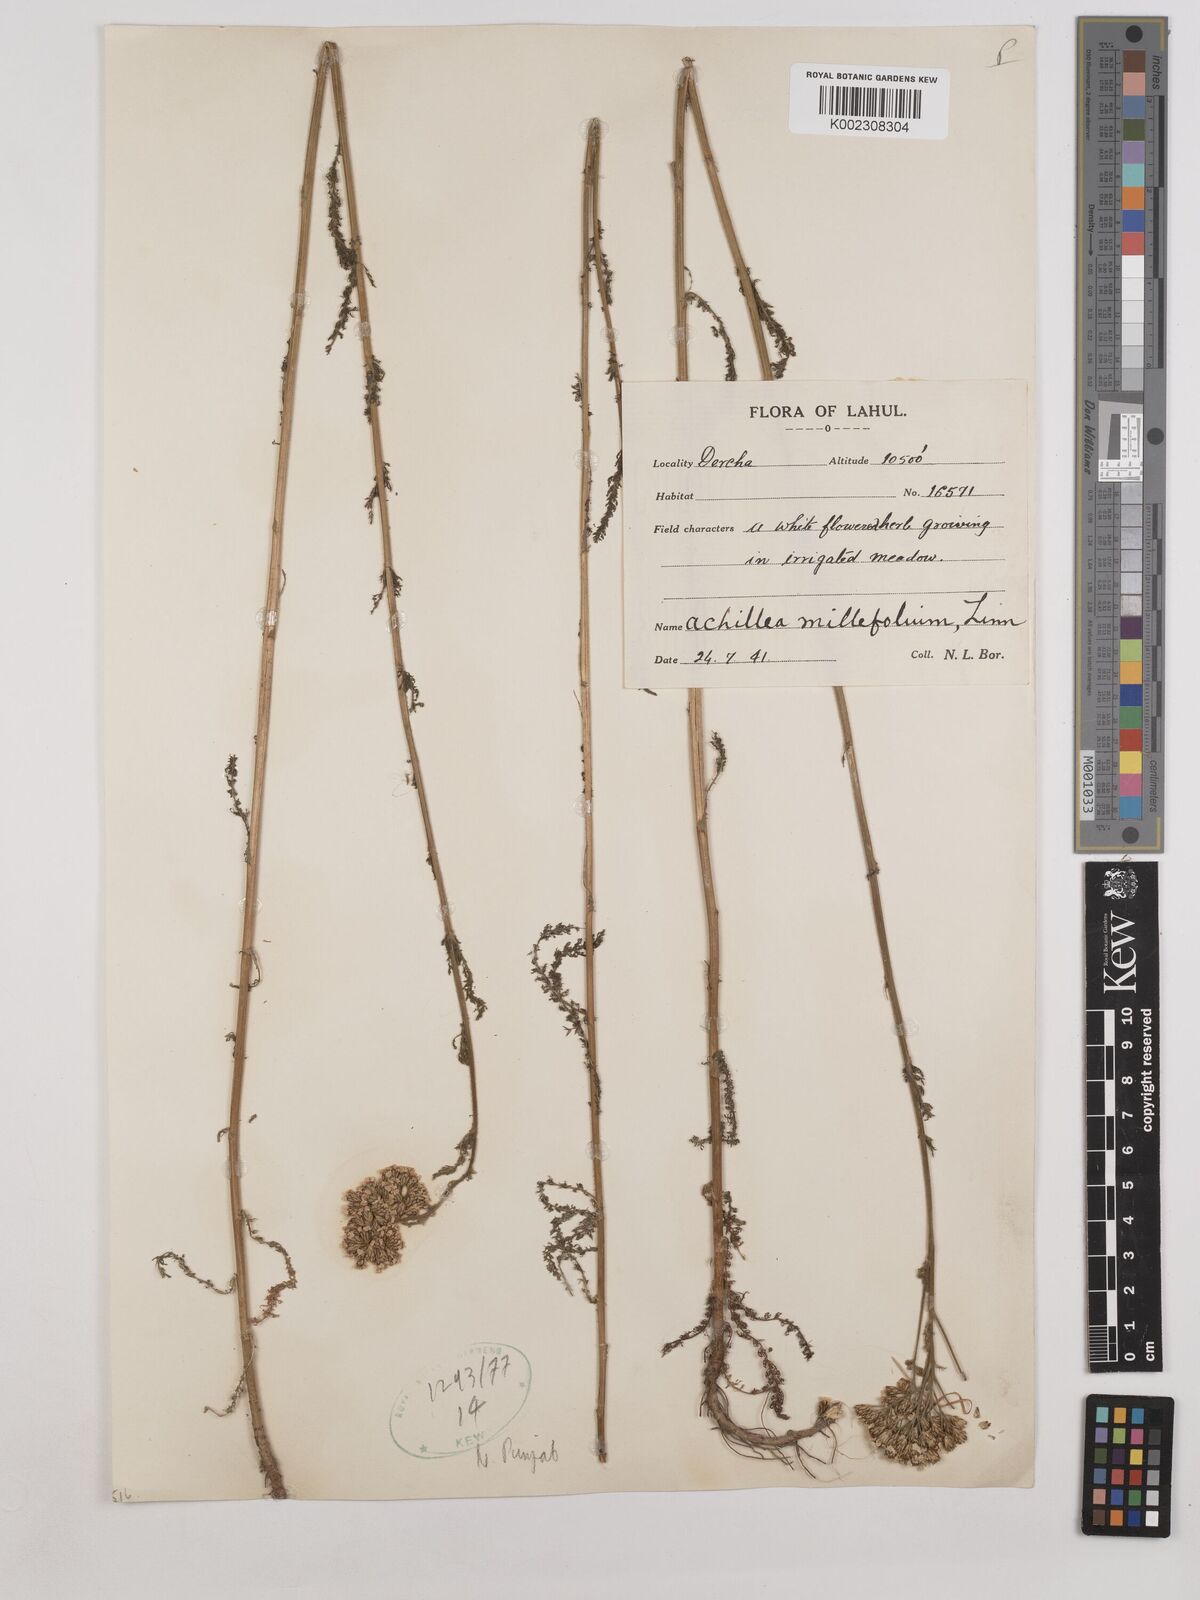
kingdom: Plantae
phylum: Tracheophyta
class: Magnoliopsida
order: Asterales
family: Asteraceae
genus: Achillea
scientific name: Achillea millefolium
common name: Yarrow
